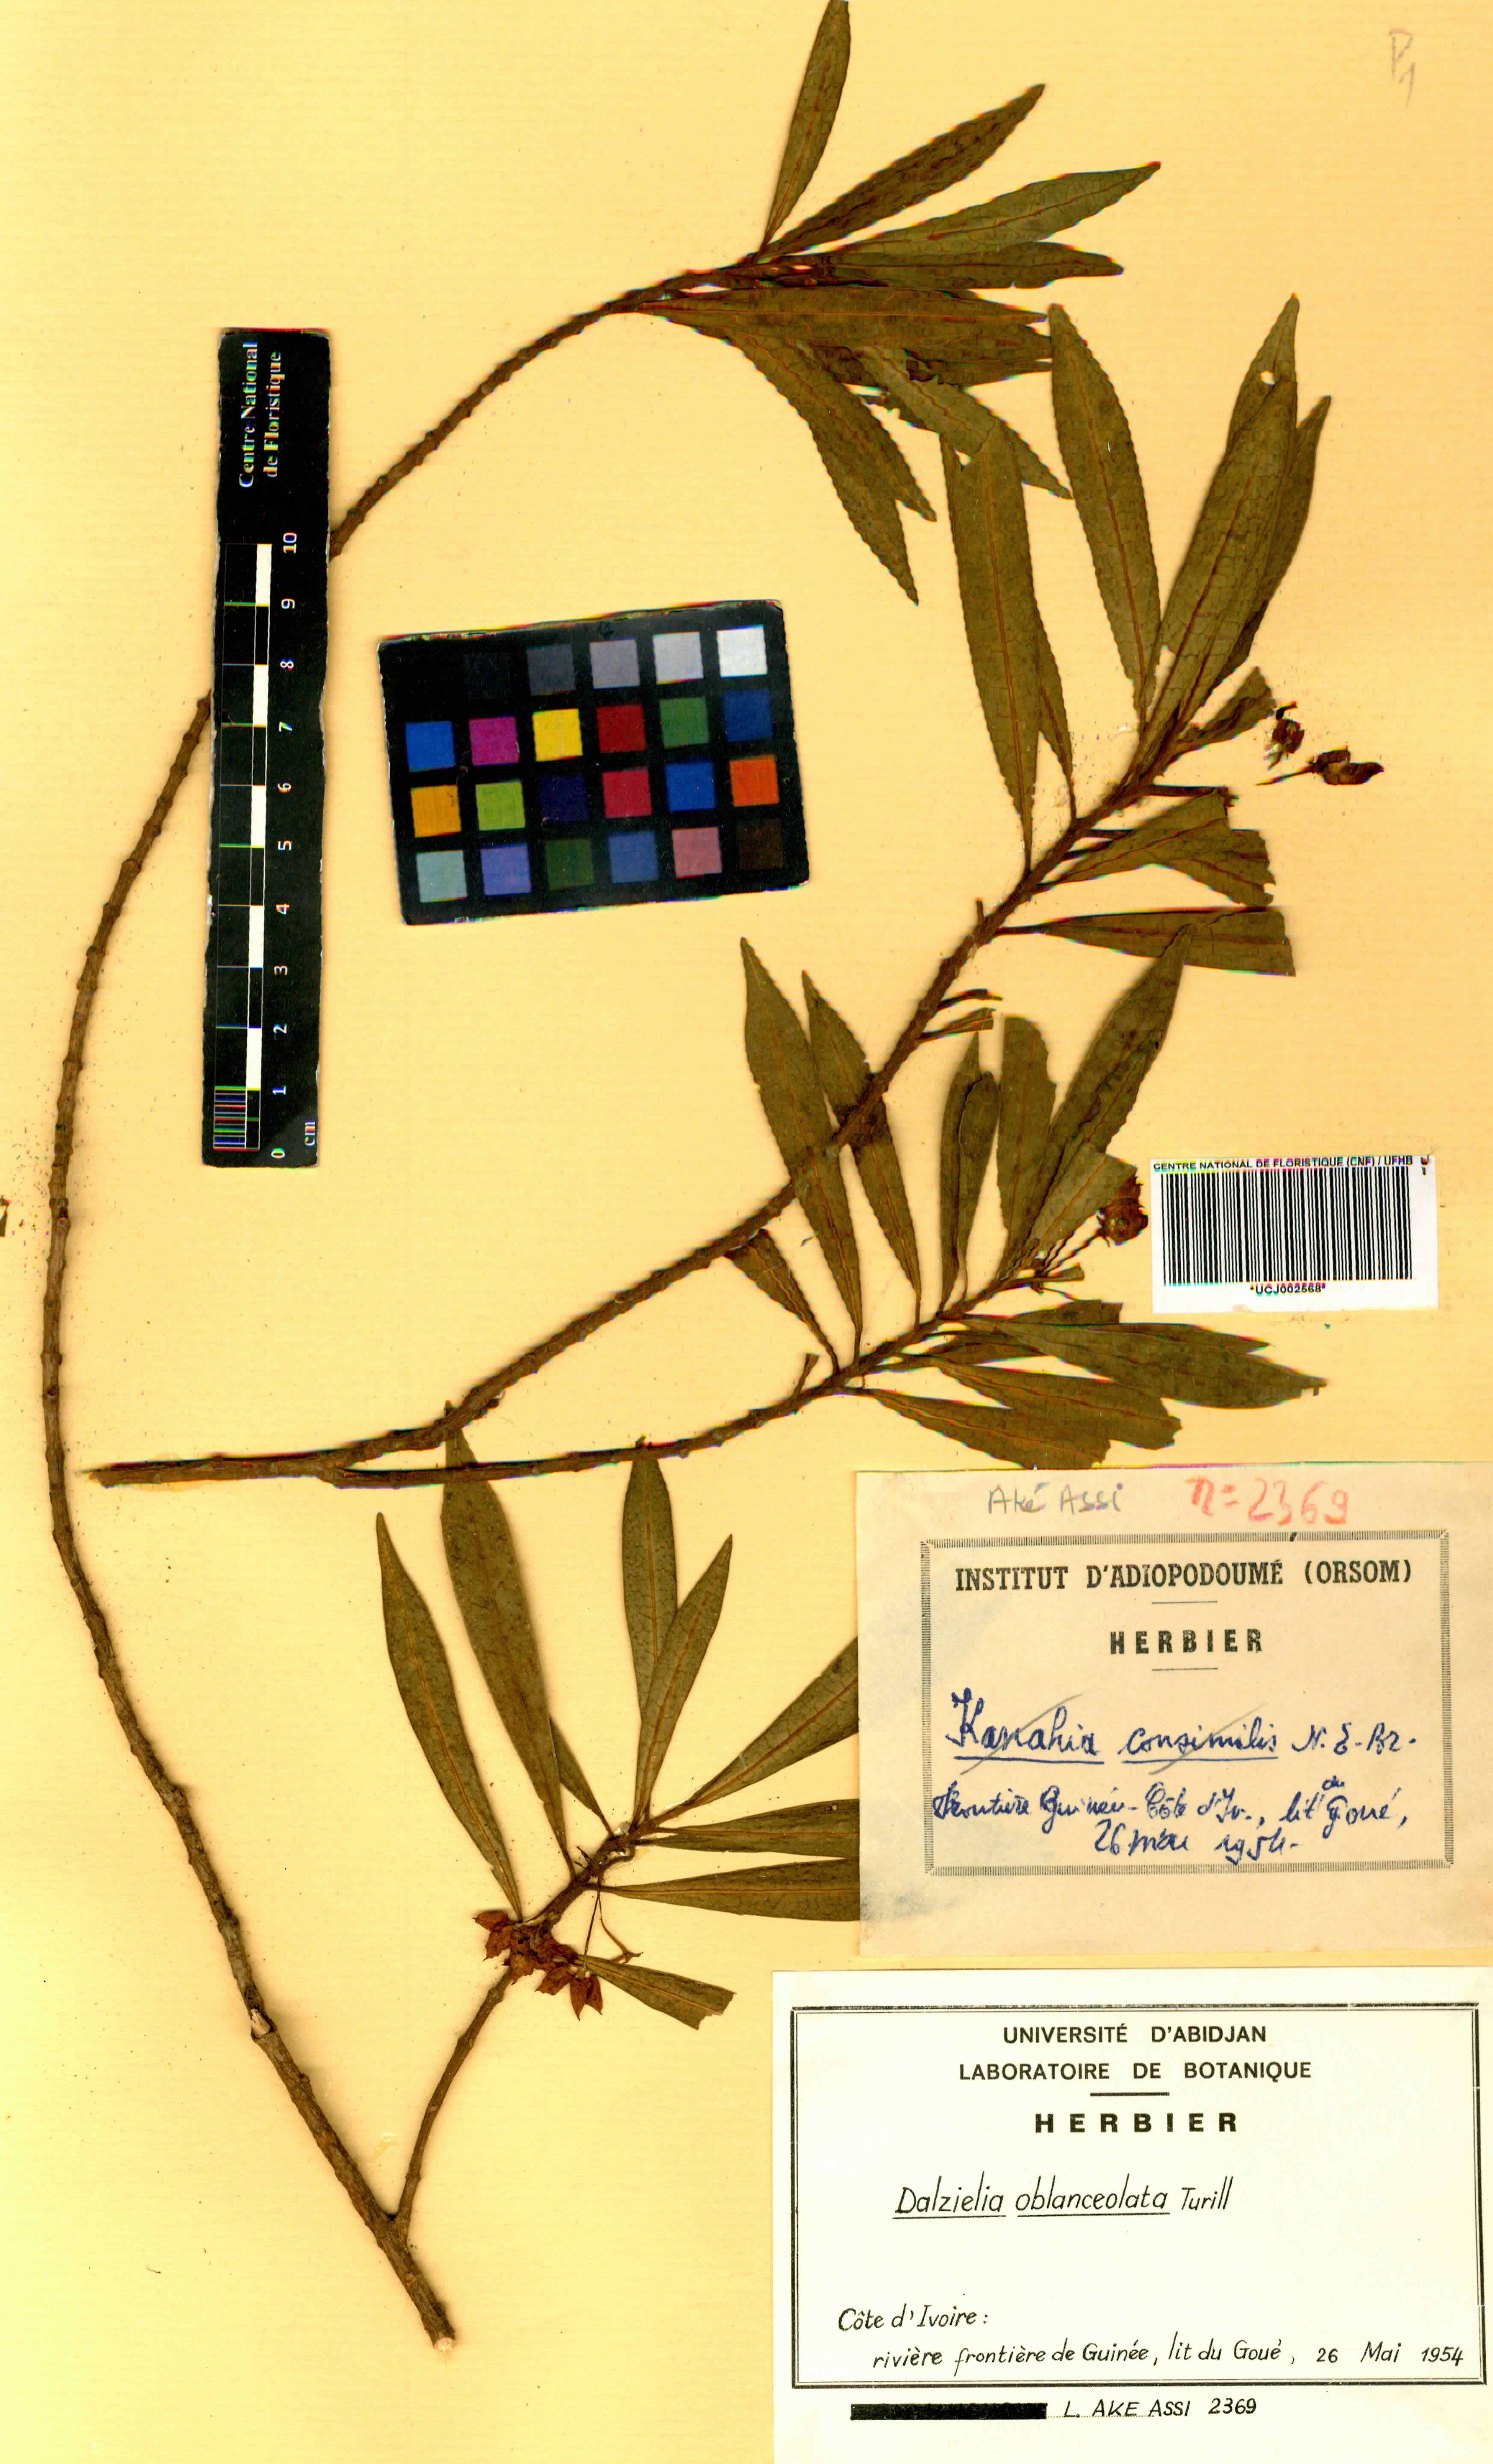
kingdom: Plantae
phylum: Tracheophyta
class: Magnoliopsida
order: Gentianales
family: Apocynaceae
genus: Dalzielia
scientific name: Dalzielia oblanceolata
